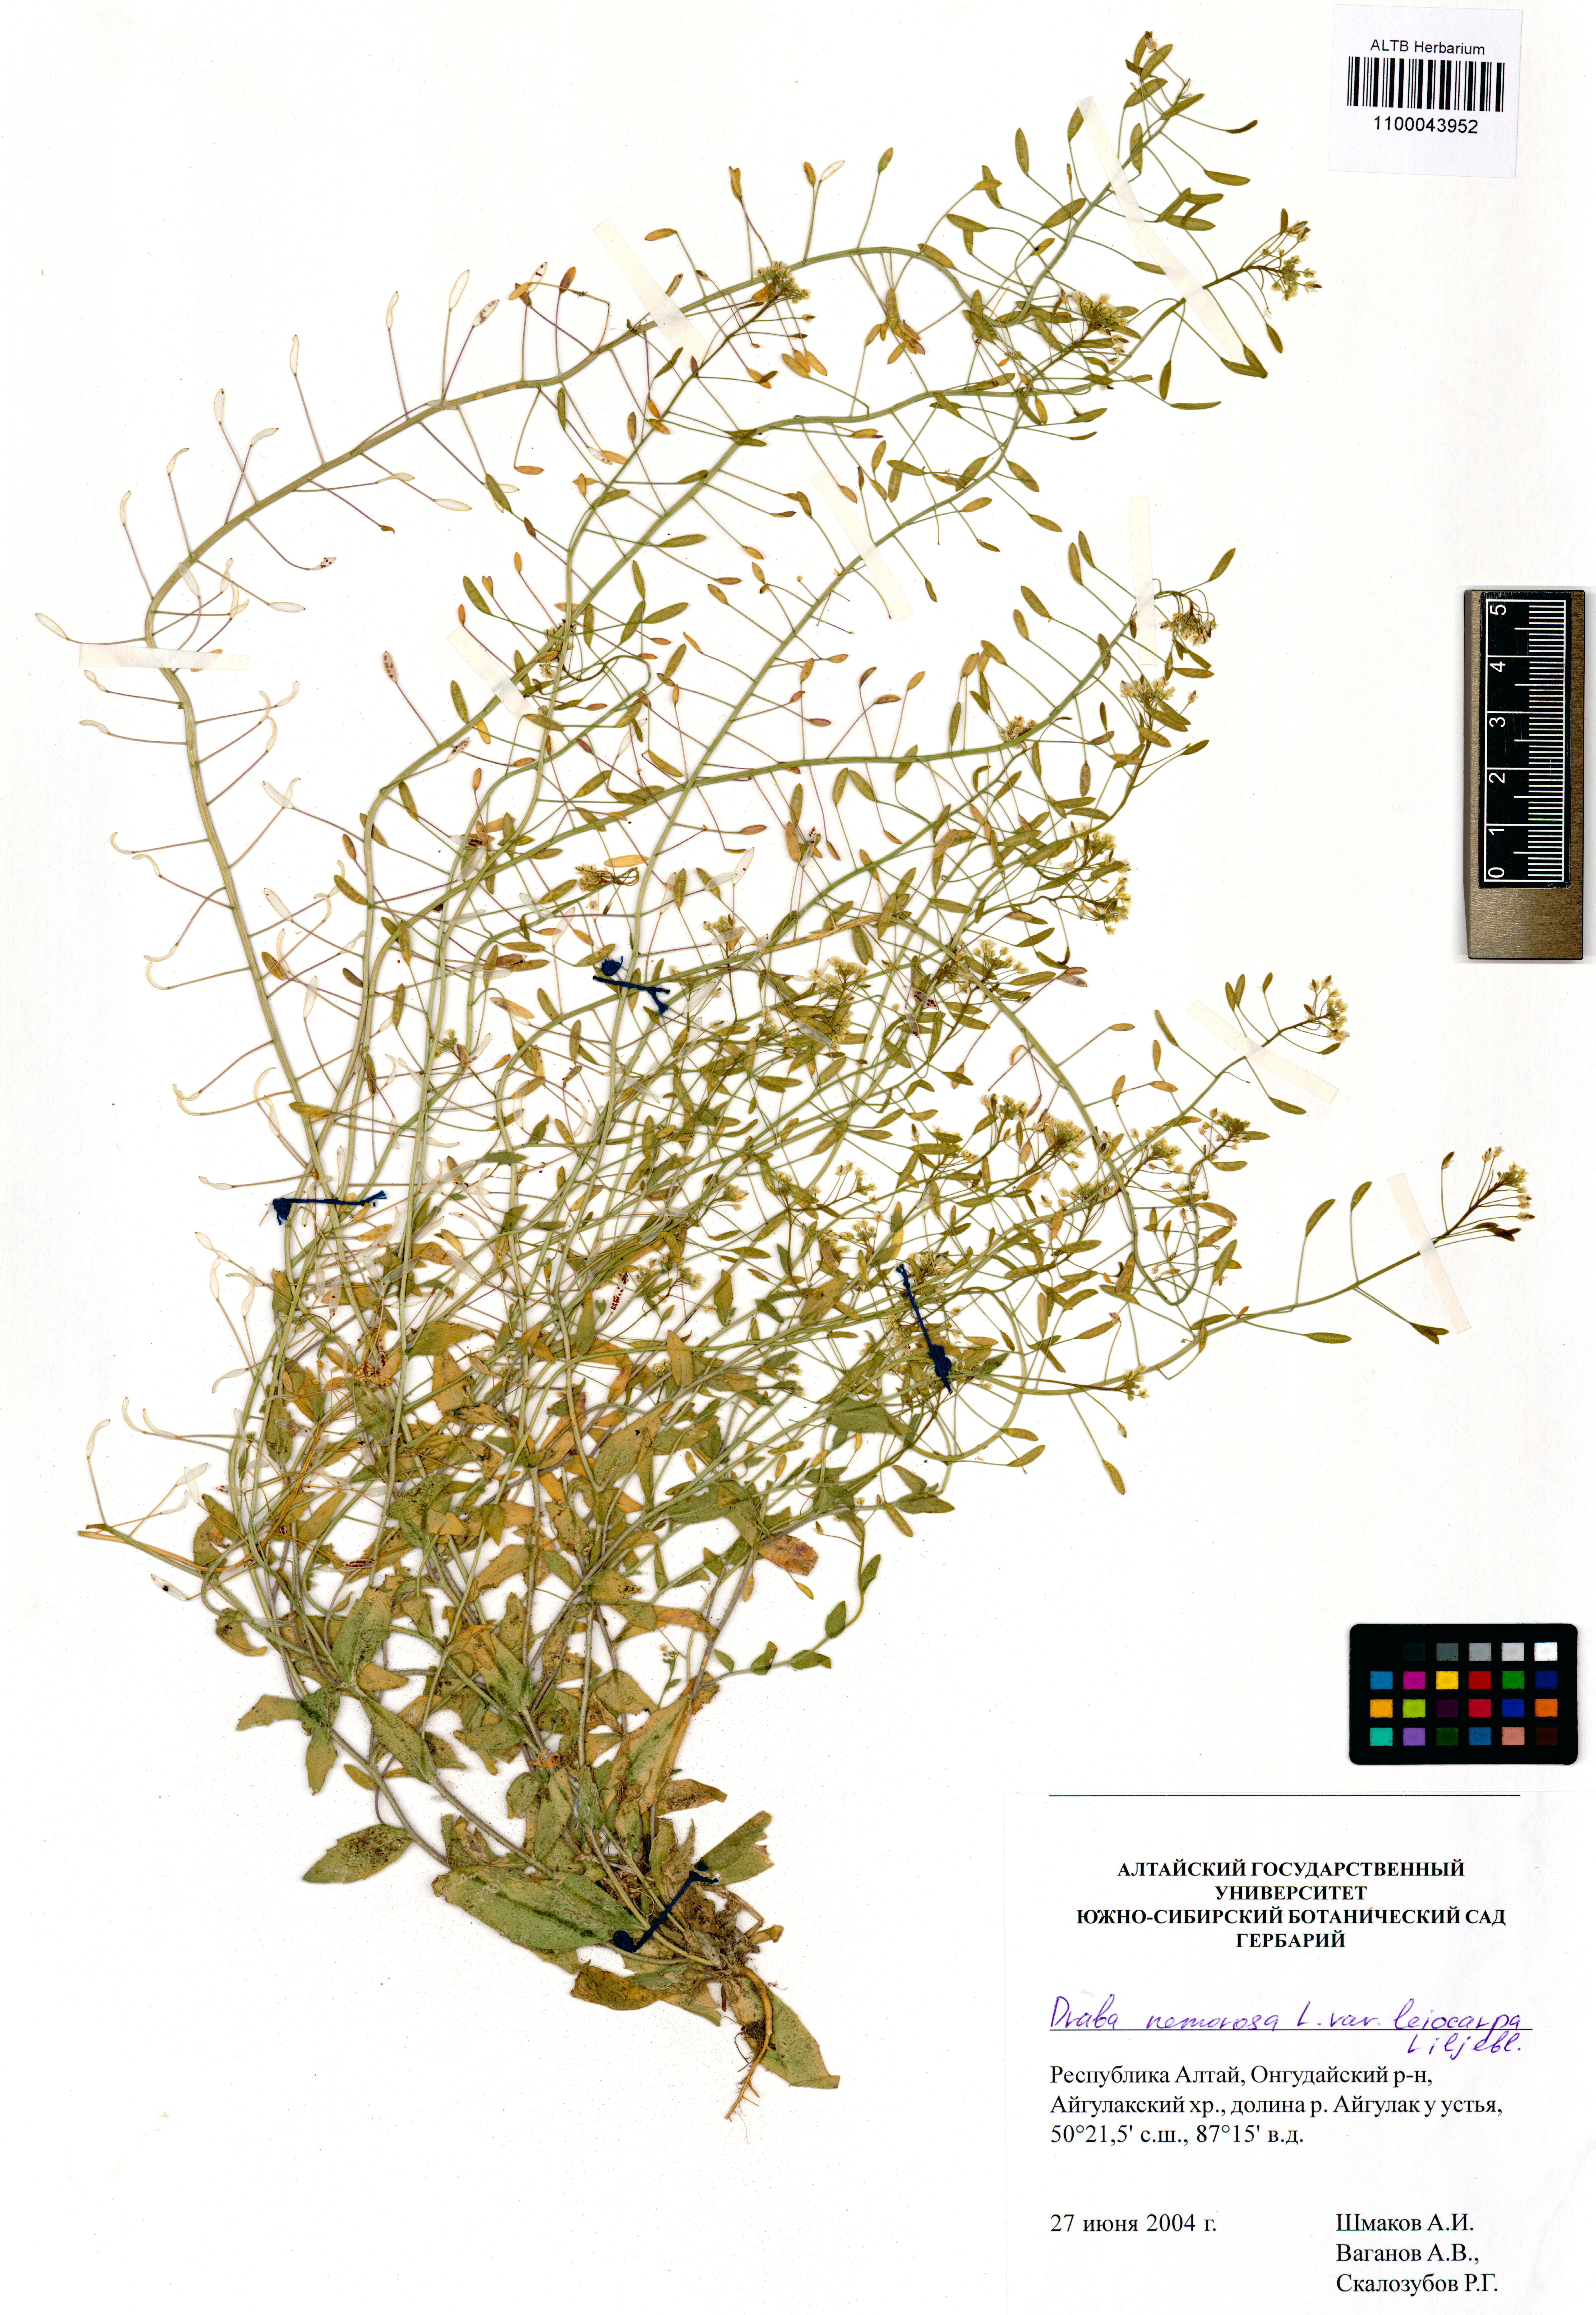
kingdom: Plantae
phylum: Tracheophyta
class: Magnoliopsida
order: Brassicales
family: Brassicaceae
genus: Draba
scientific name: Draba nemorosa
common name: Wood whitlow-grass
